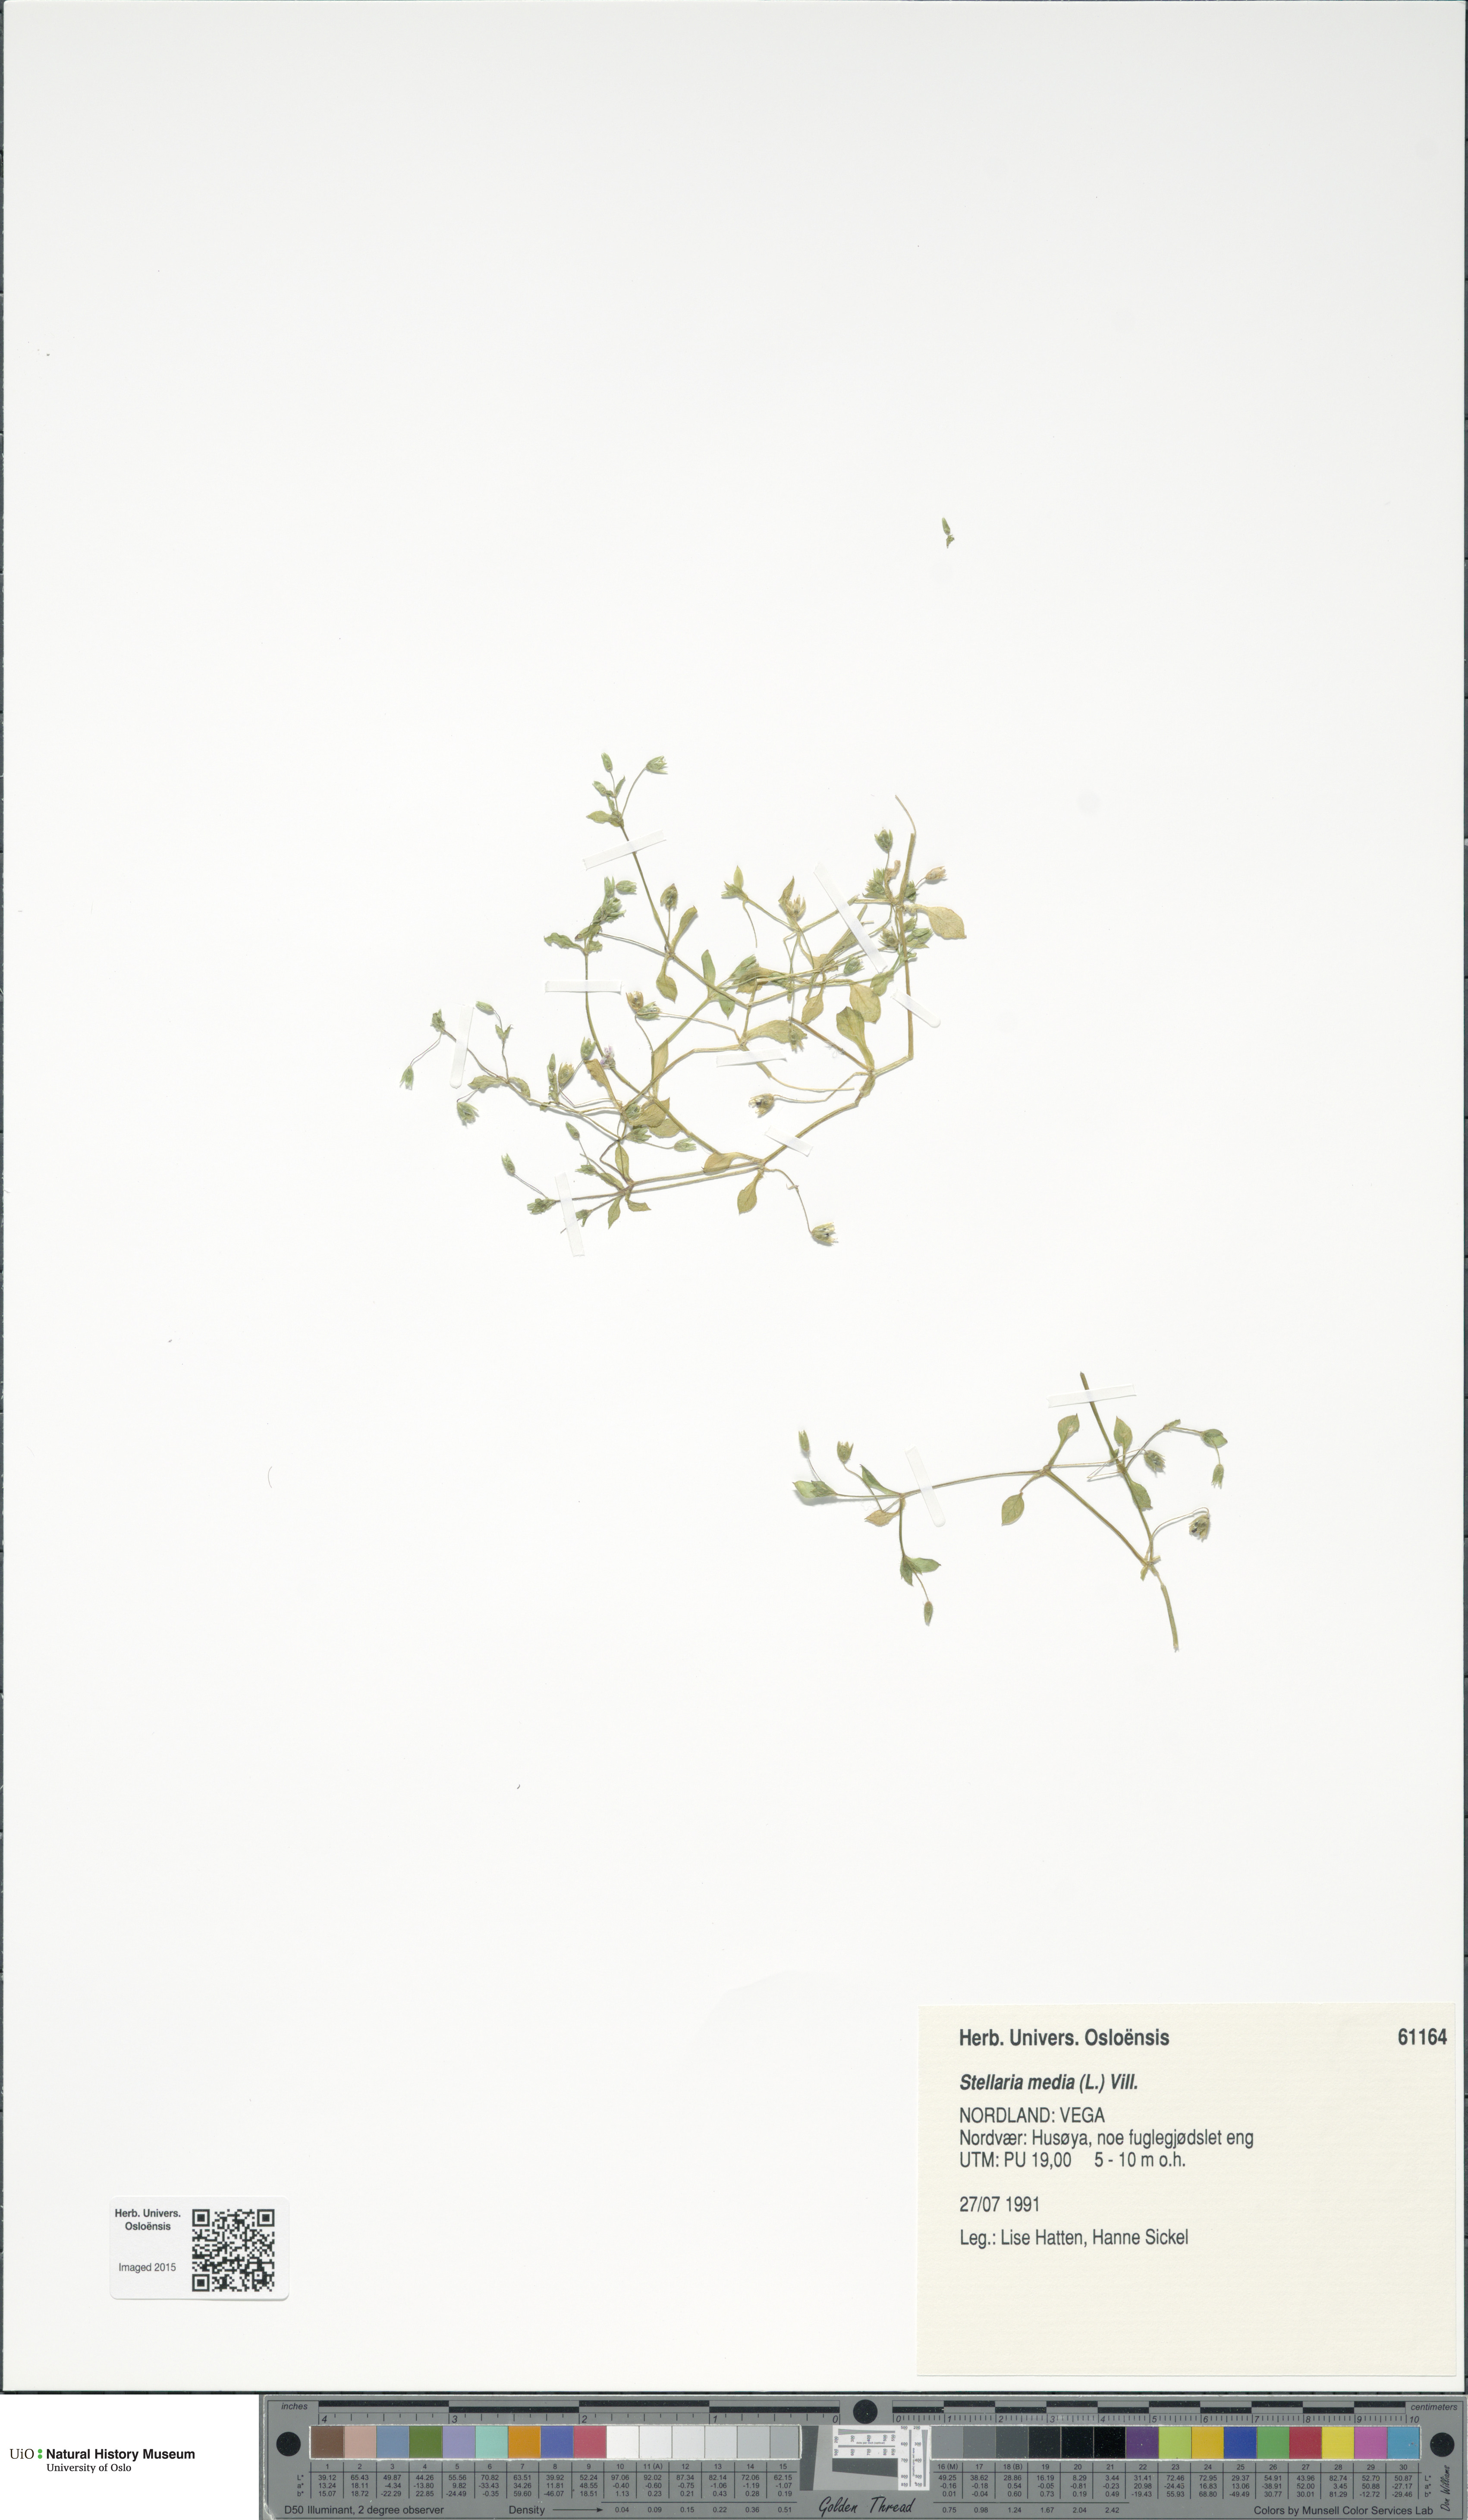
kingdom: Plantae
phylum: Tracheophyta
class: Magnoliopsida
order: Caryophyllales
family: Caryophyllaceae
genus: Stellaria
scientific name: Stellaria media
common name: Common chickweed
